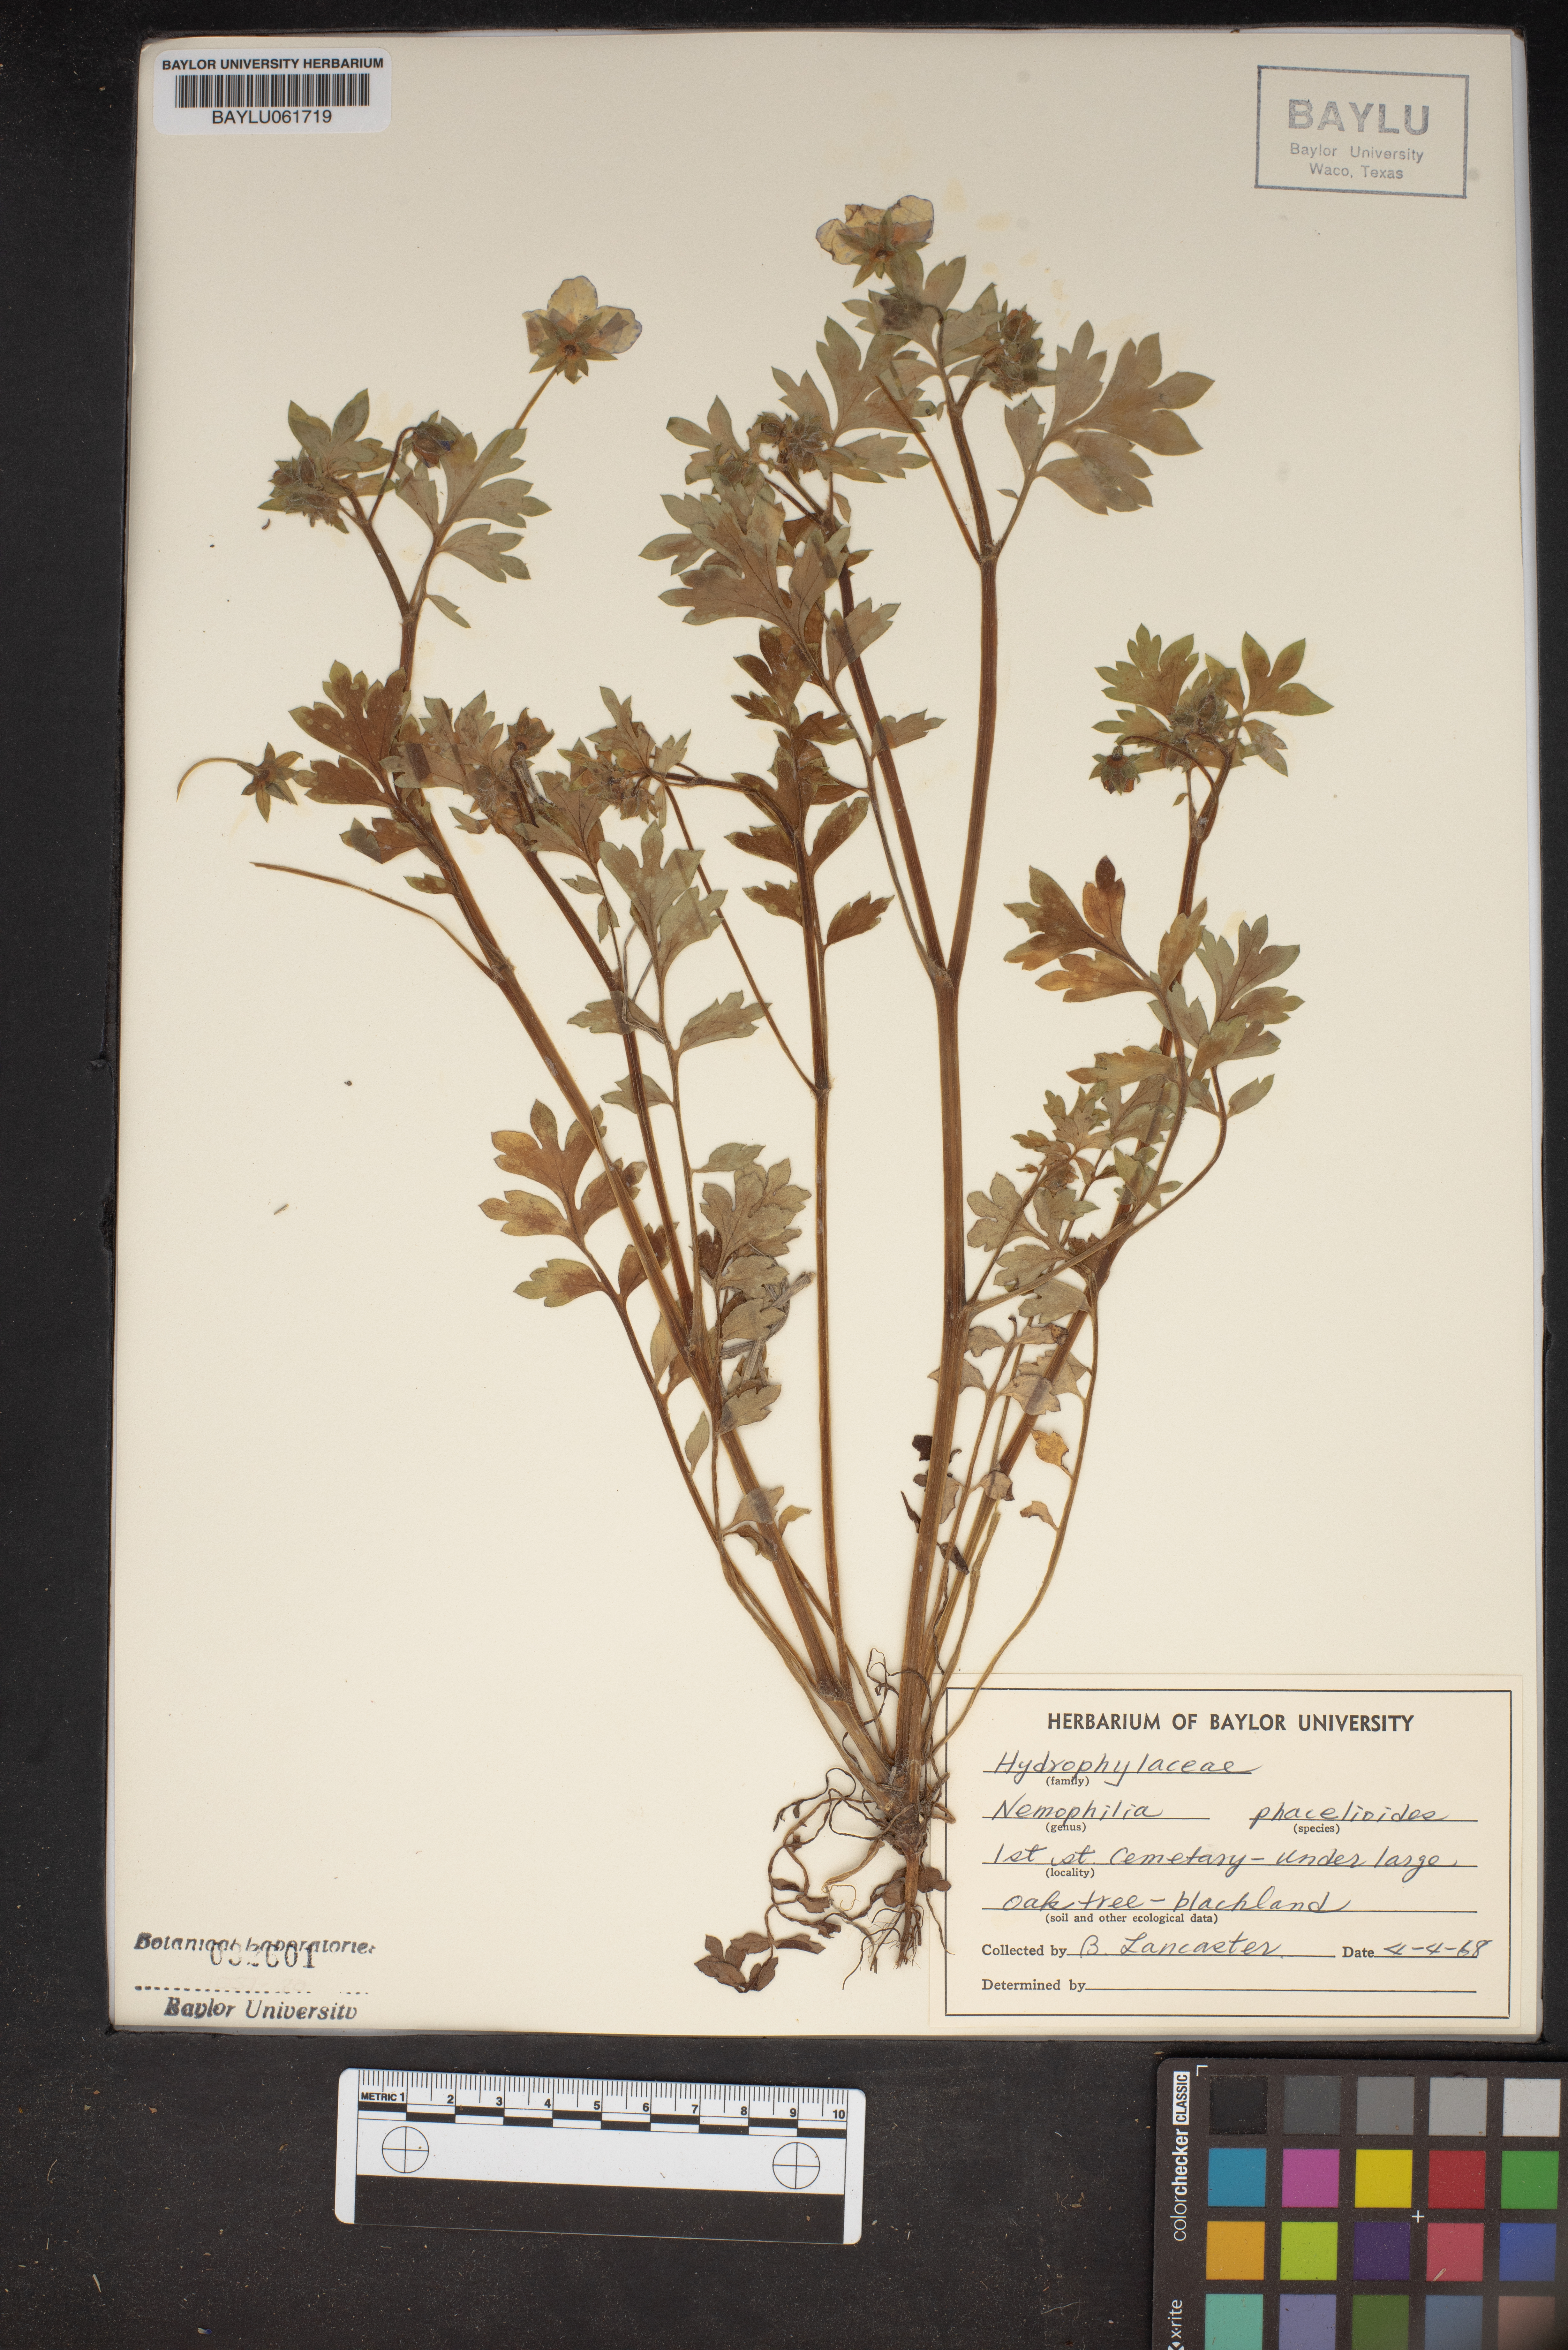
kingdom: Plantae
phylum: Tracheophyta
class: Magnoliopsida
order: Boraginales
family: Hydrophyllaceae
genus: Nemophila
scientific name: Nemophila phacelioides
